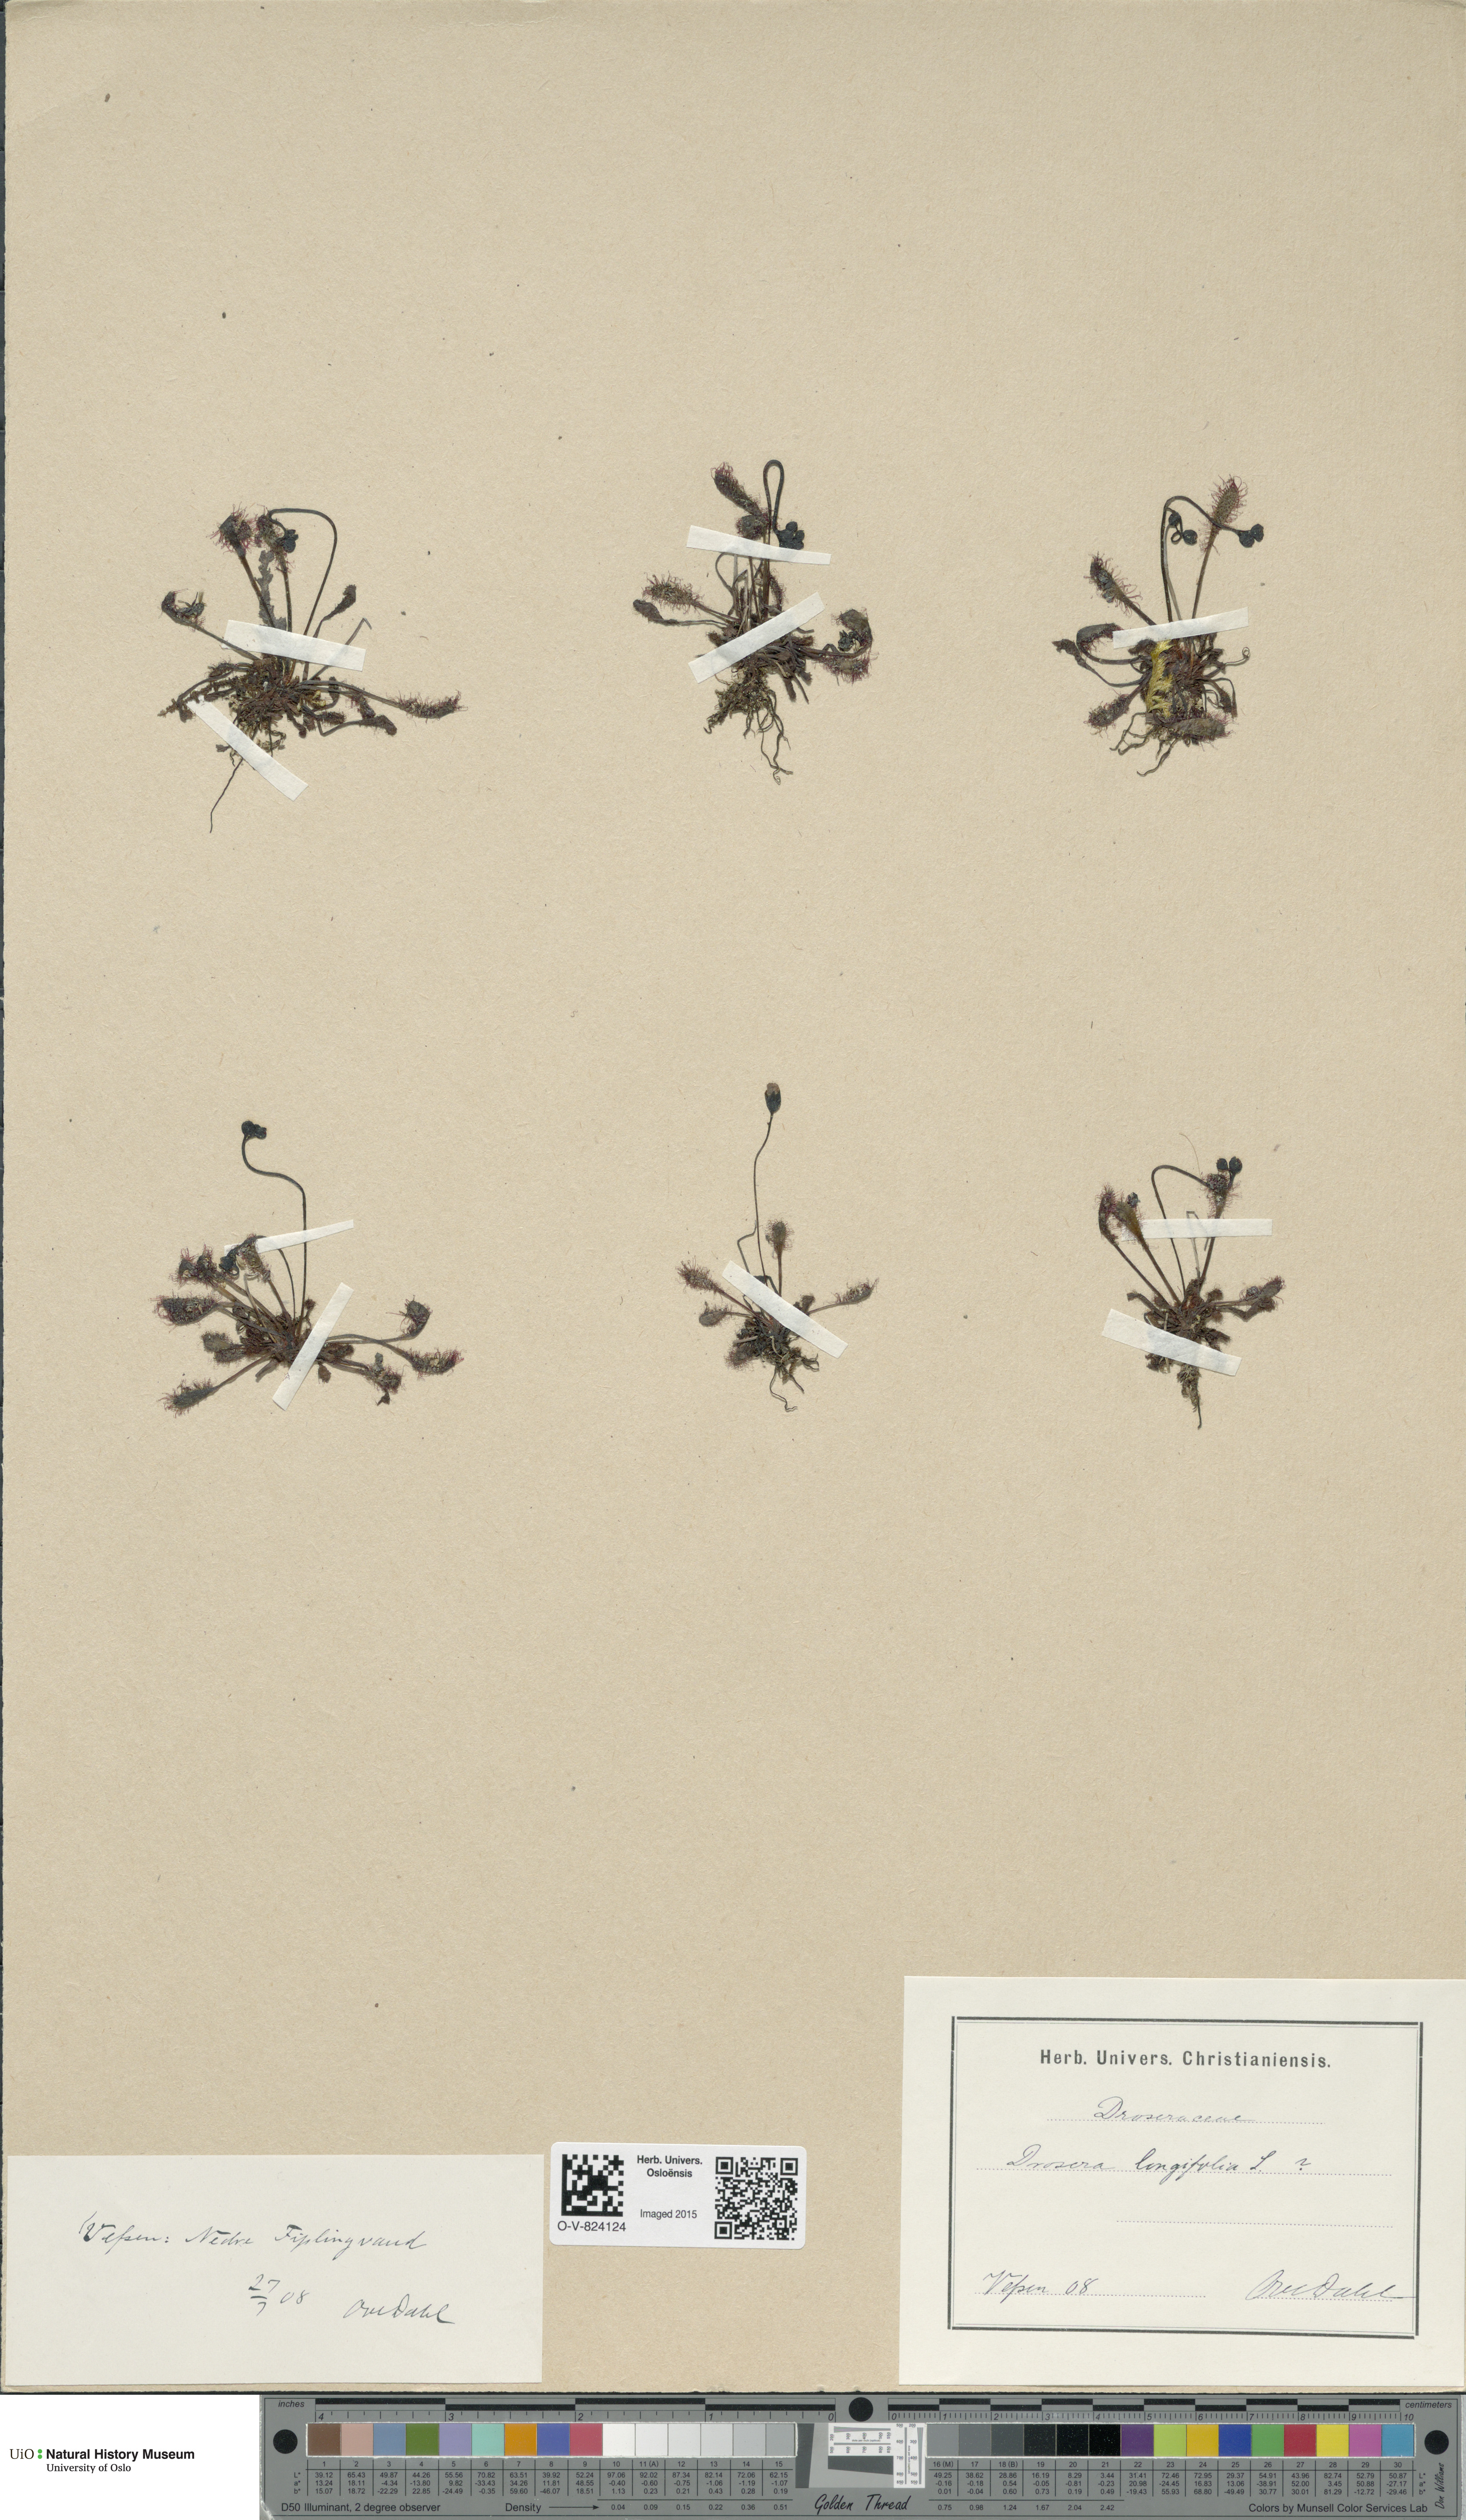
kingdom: Plantae
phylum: Tracheophyta
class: Magnoliopsida
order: Caryophyllales
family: Droseraceae
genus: Drosera
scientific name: Drosera anglica
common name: Great sundew
